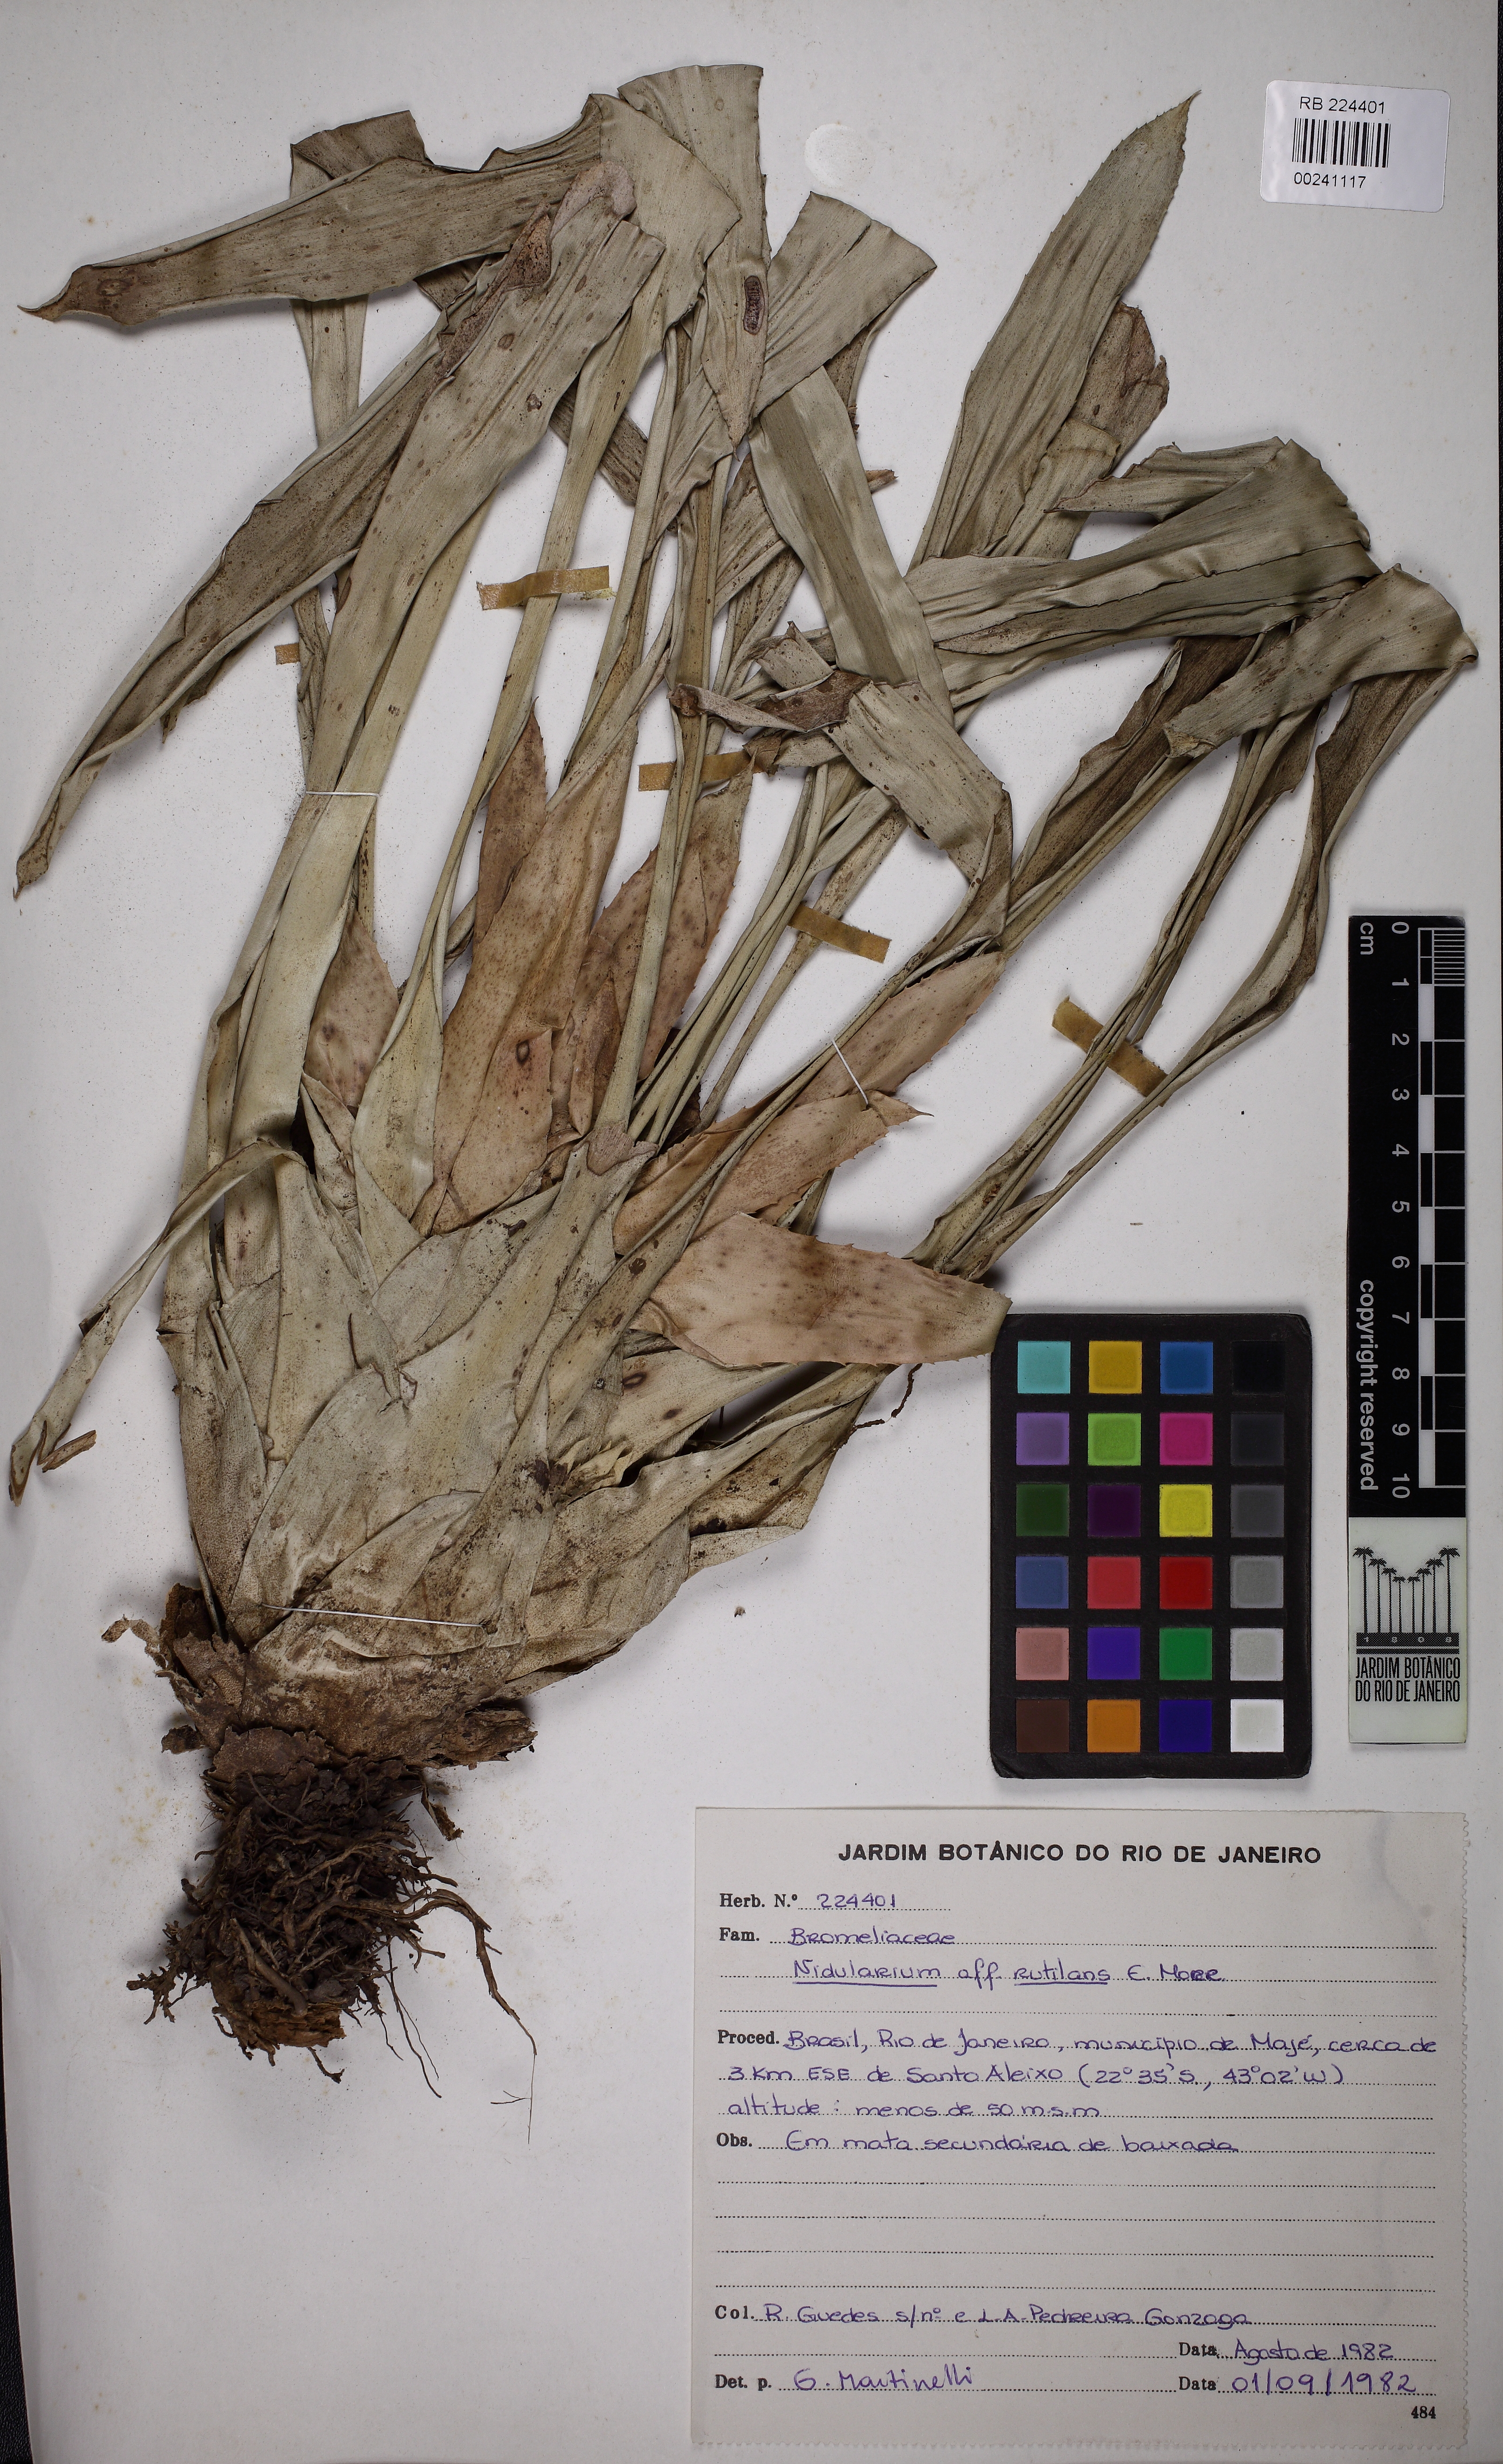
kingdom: Plantae
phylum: Tracheophyta
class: Liliopsida
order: Poales
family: Bromeliaceae
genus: Nidularium
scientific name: Nidularium rutilans
